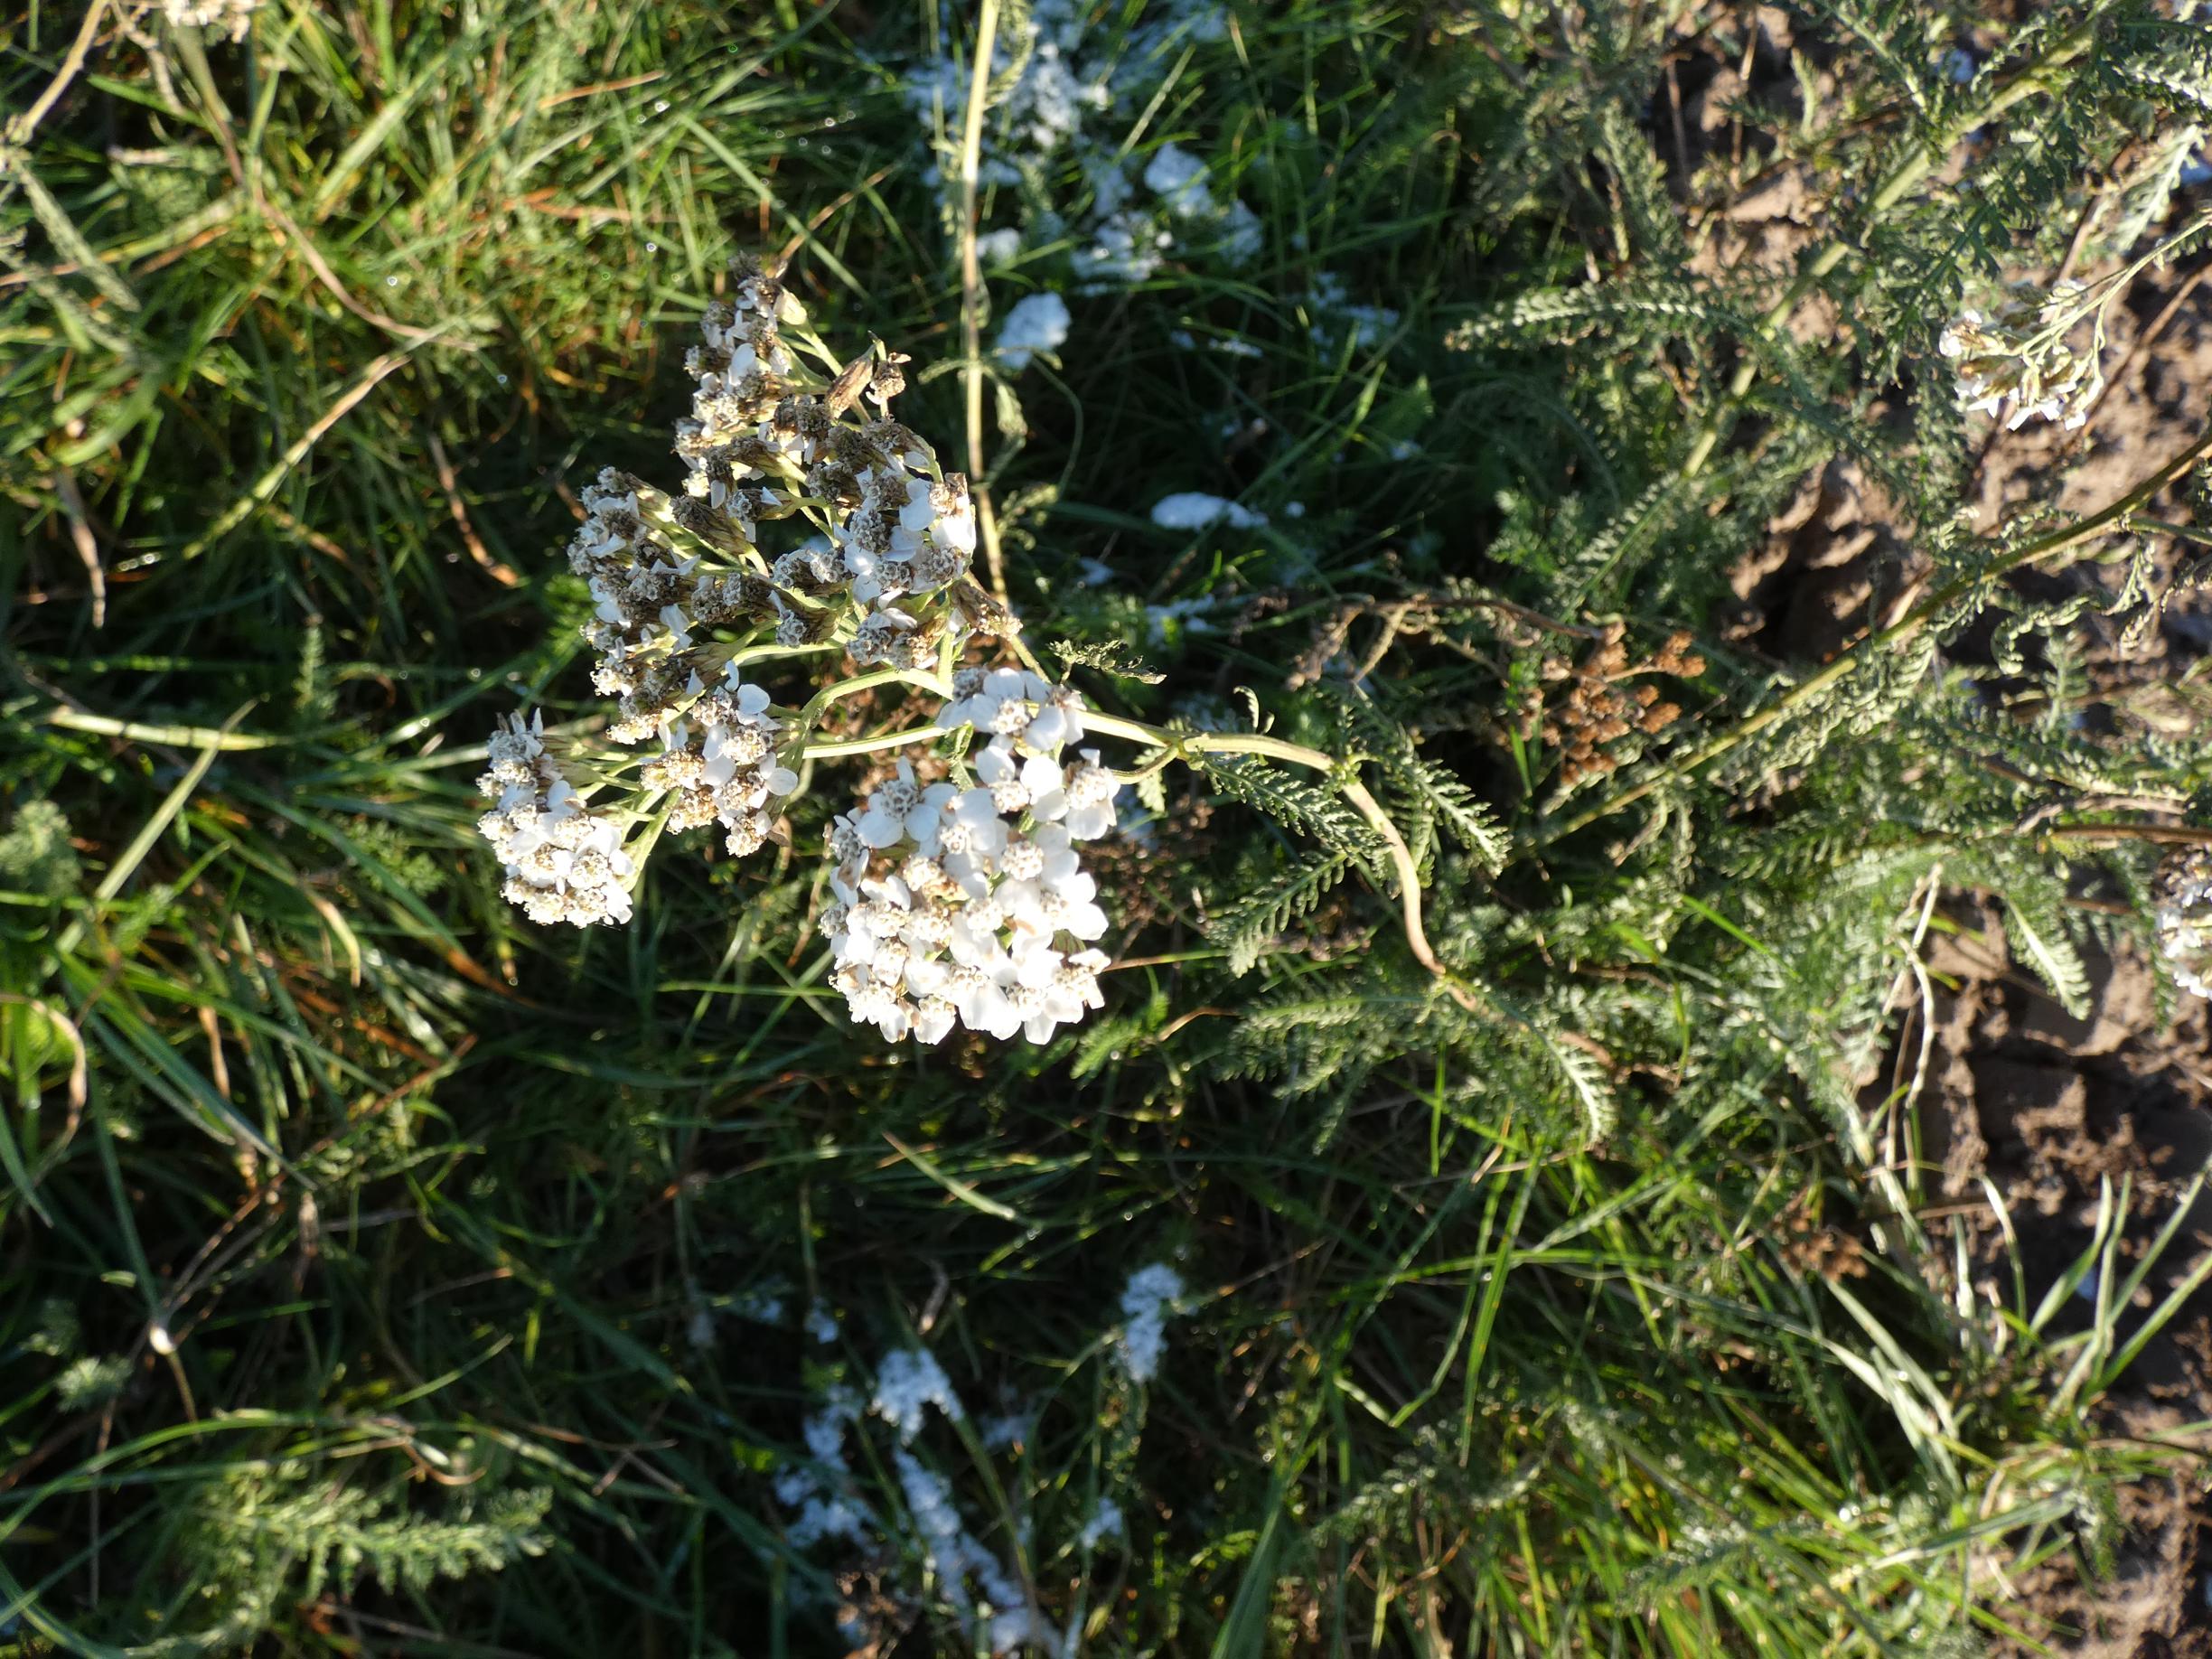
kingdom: Plantae
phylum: Tracheophyta
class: Magnoliopsida
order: Asterales
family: Asteraceae
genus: Achillea
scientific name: Achillea millefolium
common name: Almindelig røllike
